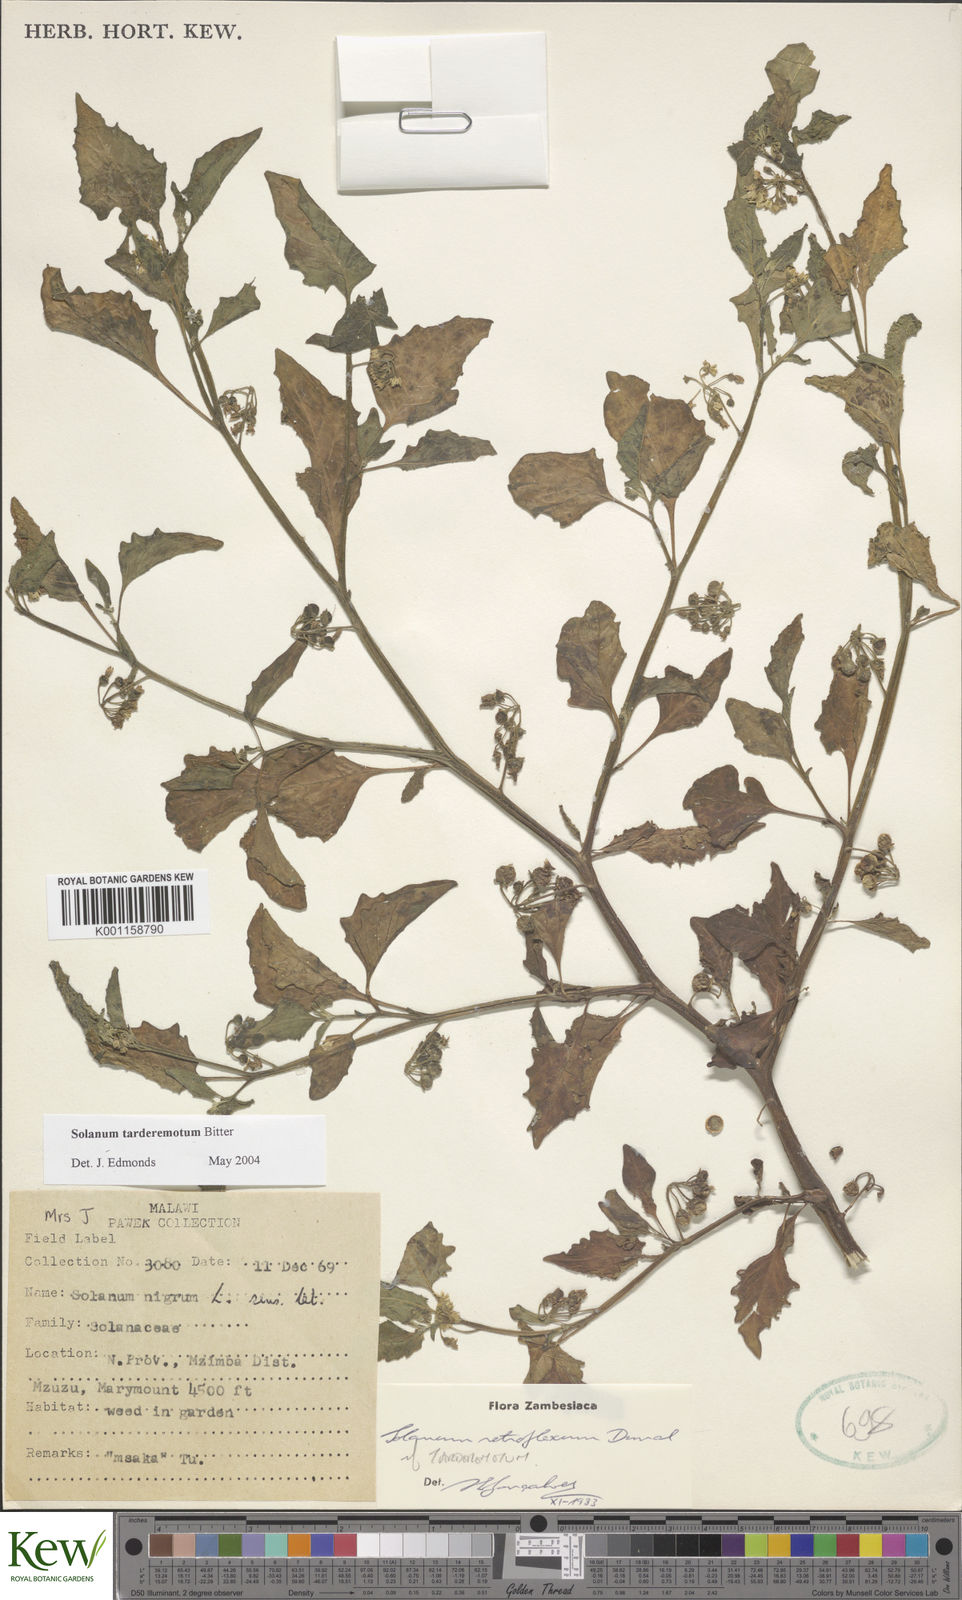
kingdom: Plantae
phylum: Tracheophyta
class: Magnoliopsida
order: Solanales
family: Solanaceae
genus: Solanum
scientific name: Solanum tarderemotum
